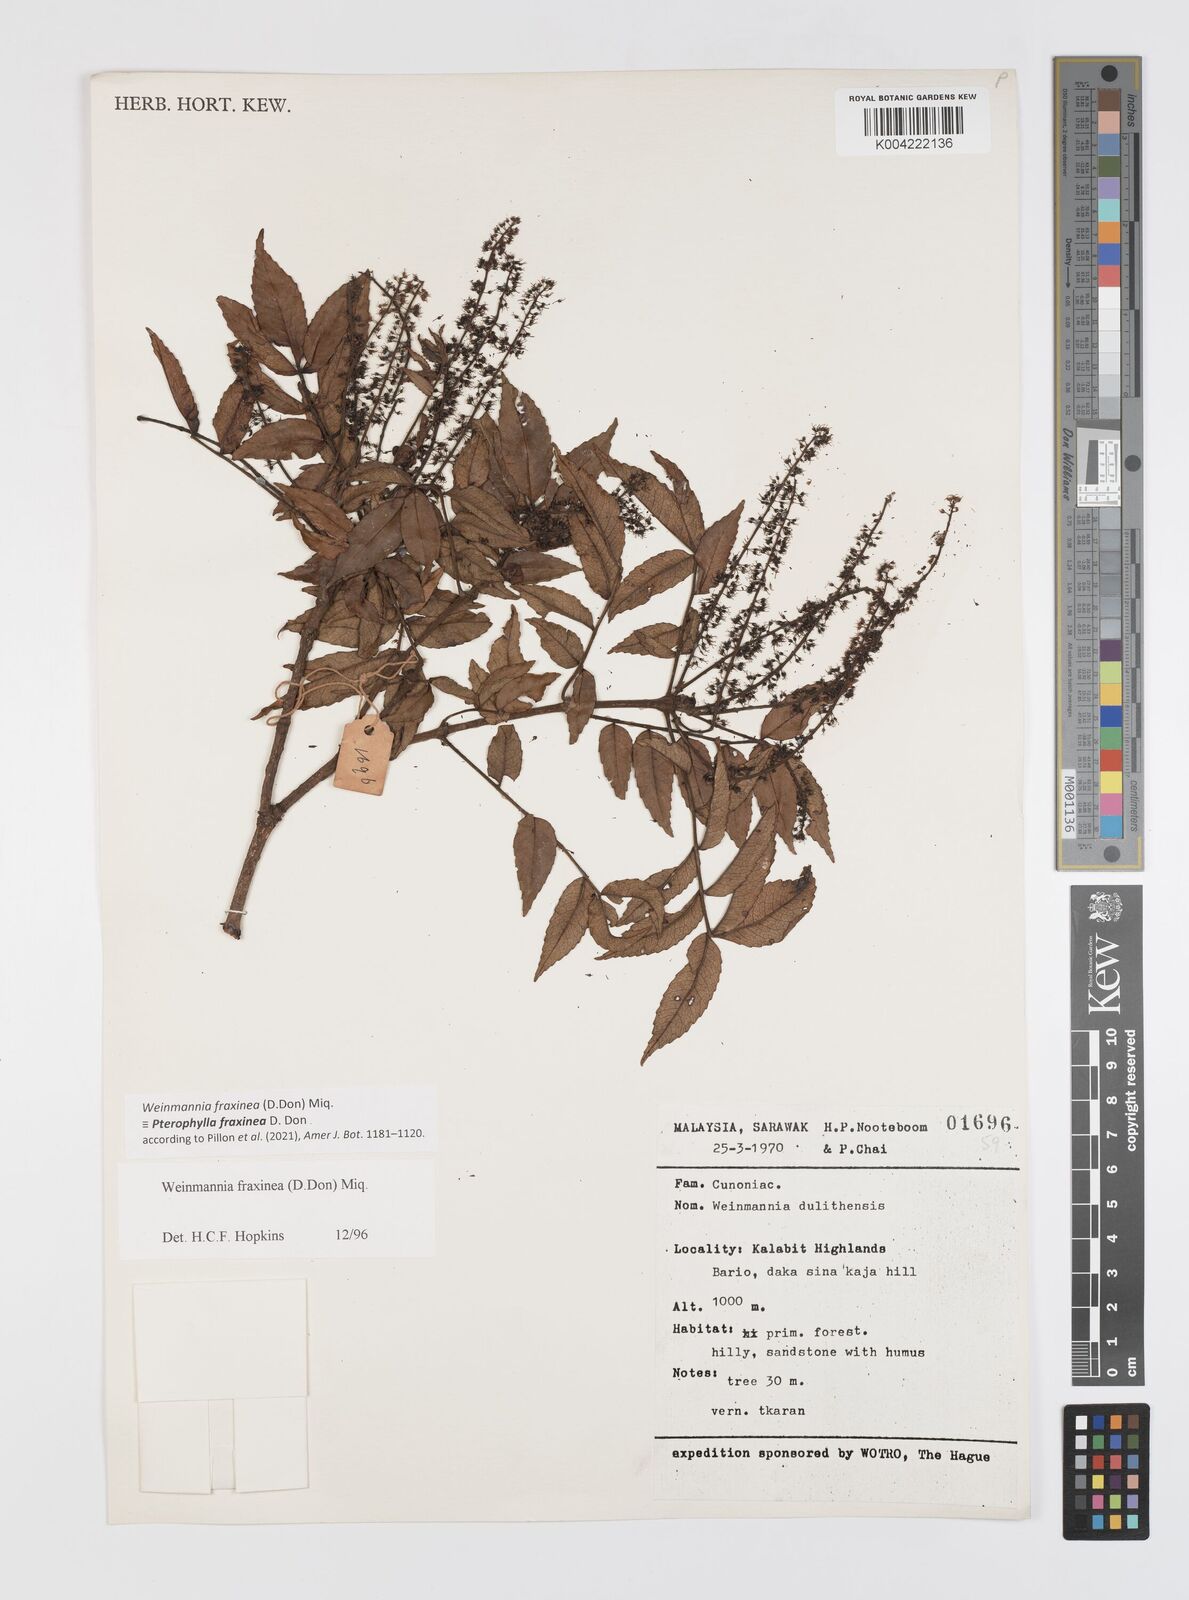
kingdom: Plantae
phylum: Tracheophyta
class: Magnoliopsida
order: Oxalidales
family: Cunoniaceae
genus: Pterophylla
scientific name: Pterophylla fraxinea
